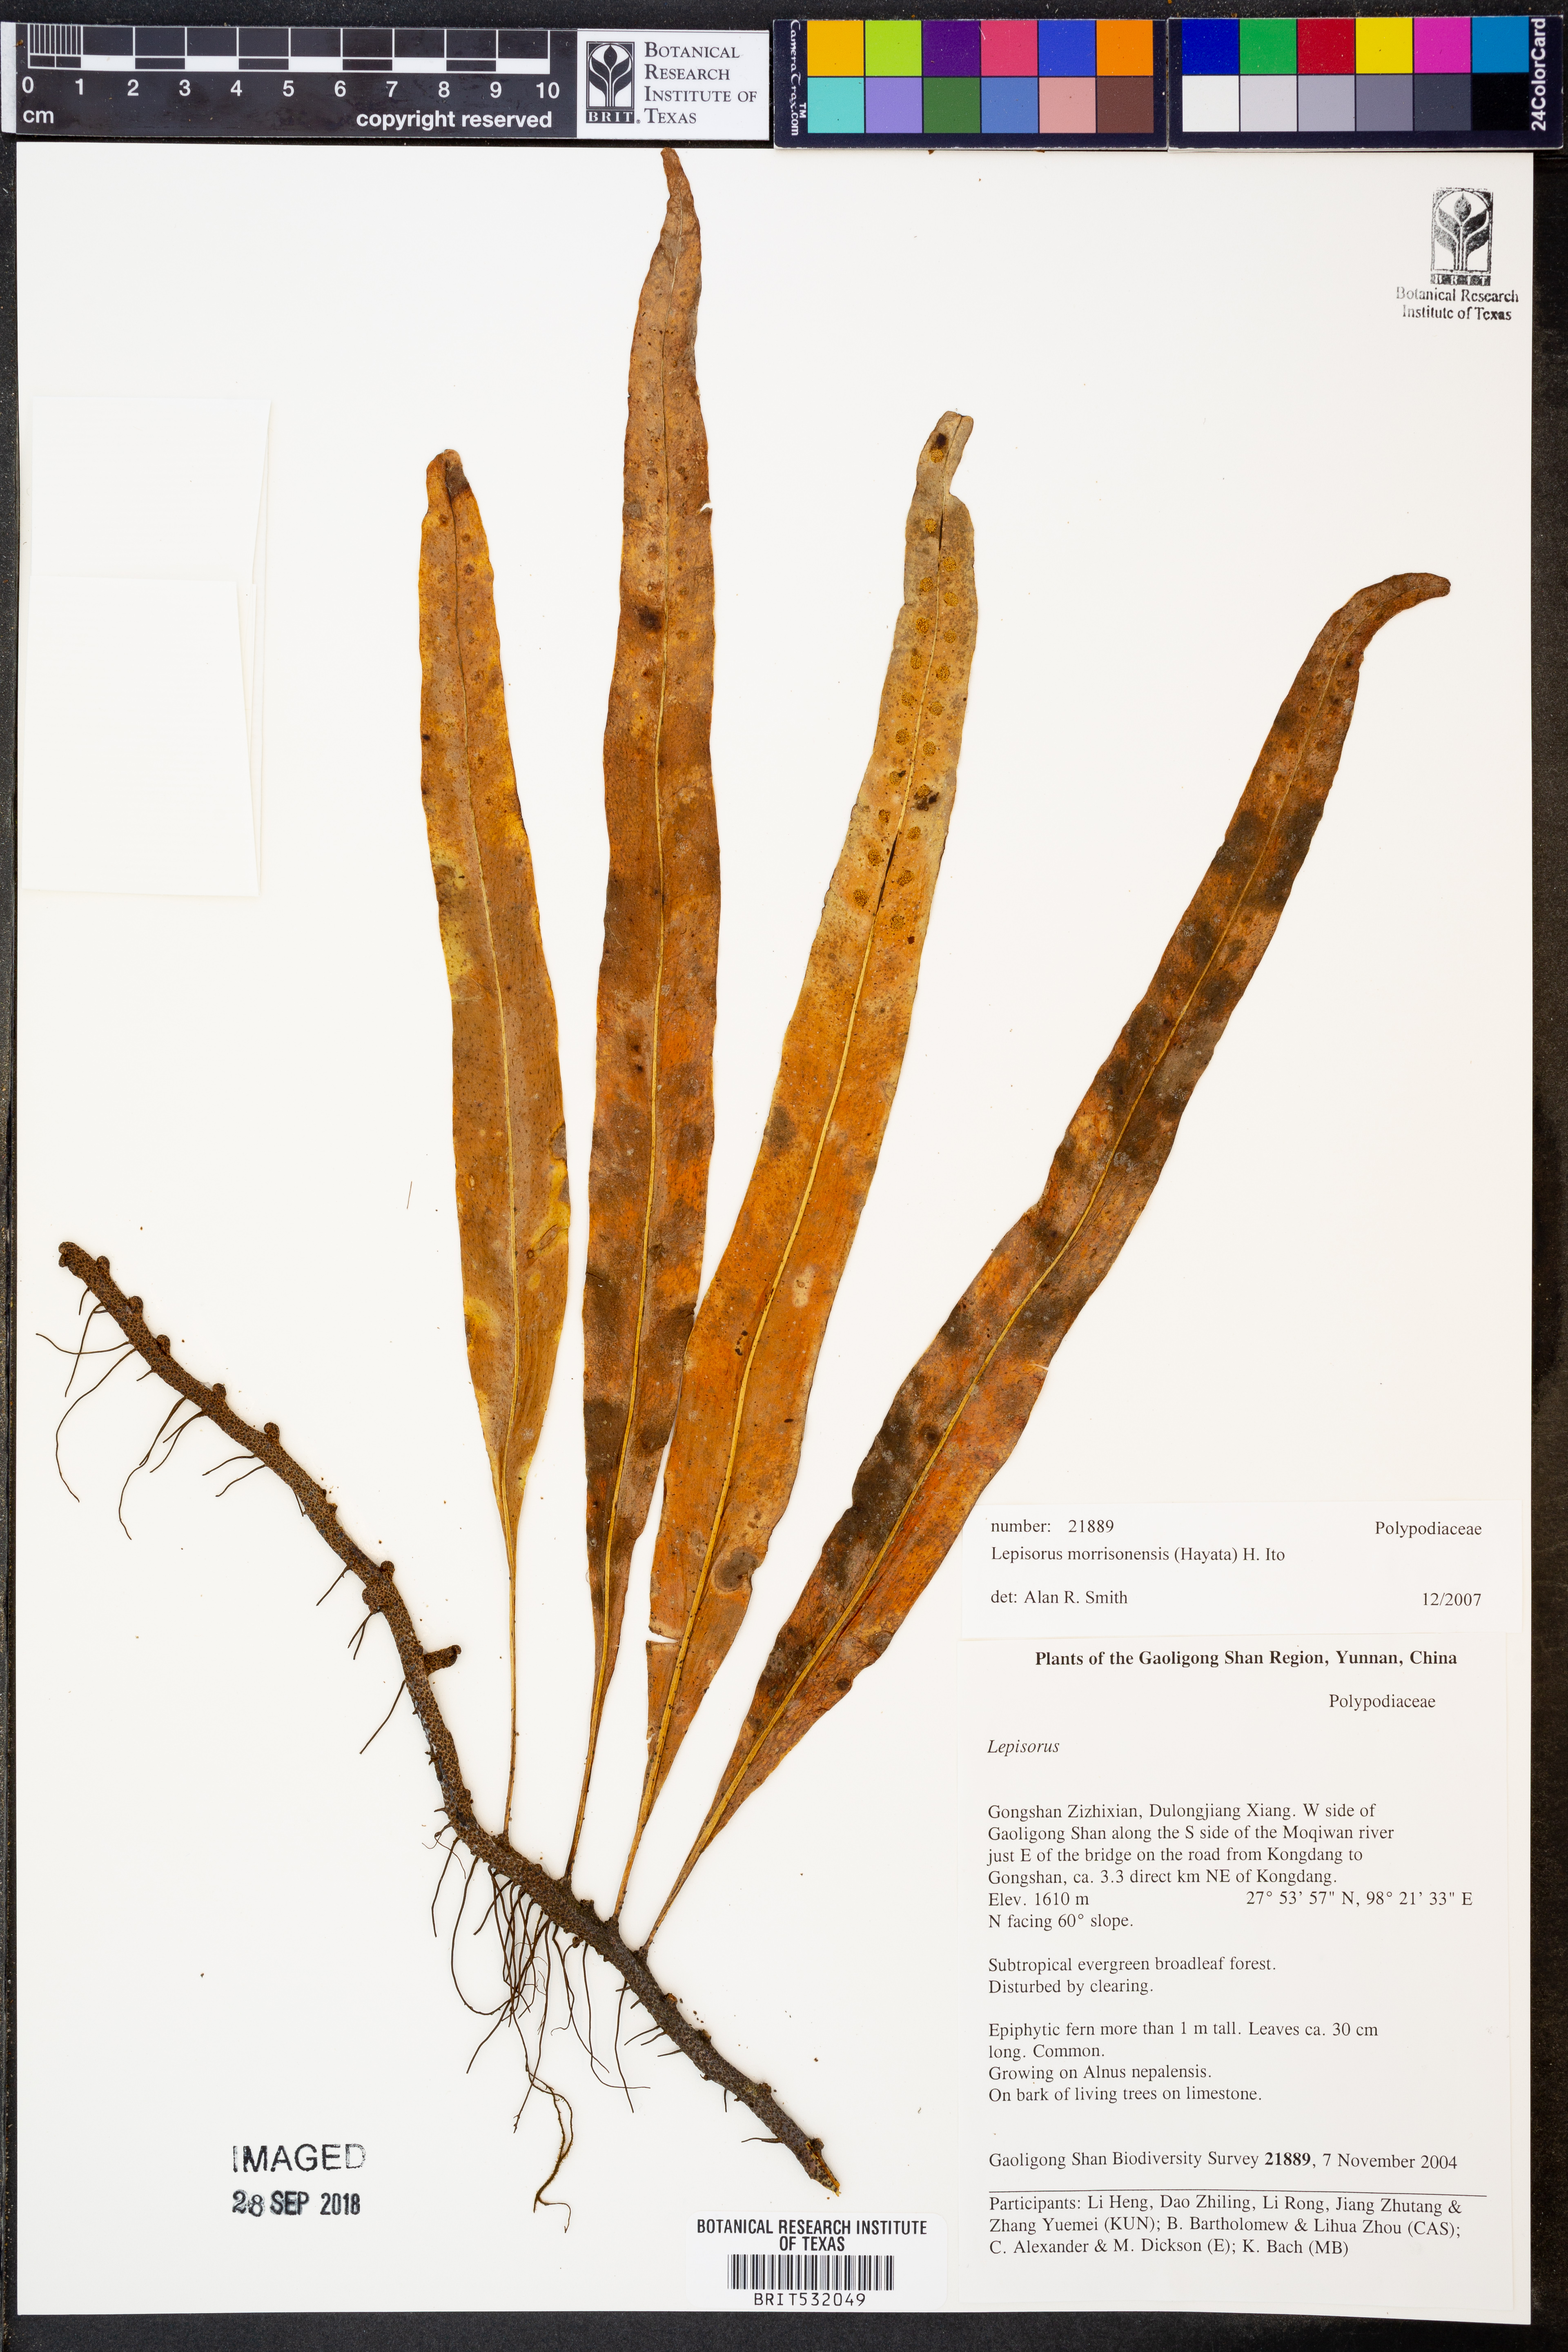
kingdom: Plantae
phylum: Tracheophyta
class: Polypodiopsida
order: Polypodiales
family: Polypodiaceae
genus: Lepisorus
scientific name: Lepisorus morrisonensis
